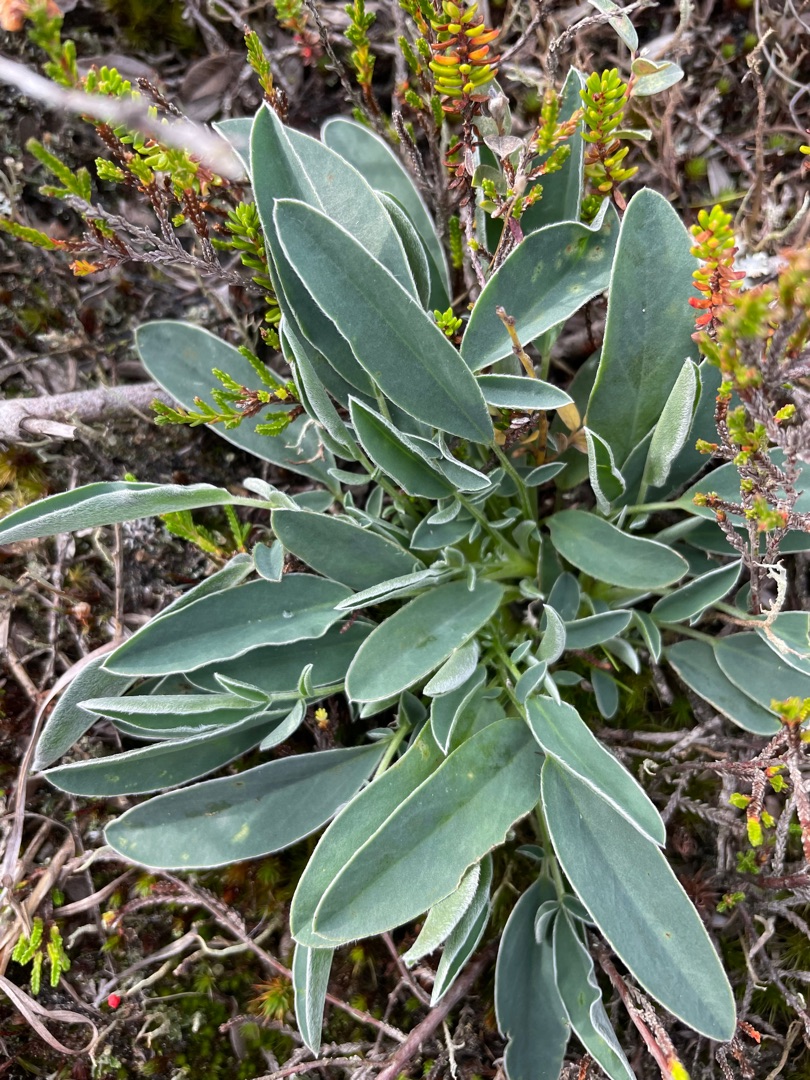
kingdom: Plantae
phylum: Tracheophyta
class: Magnoliopsida
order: Fabales
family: Fabaceae
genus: Anthyllis
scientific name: Anthyllis vulneraria
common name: Rundbælg
